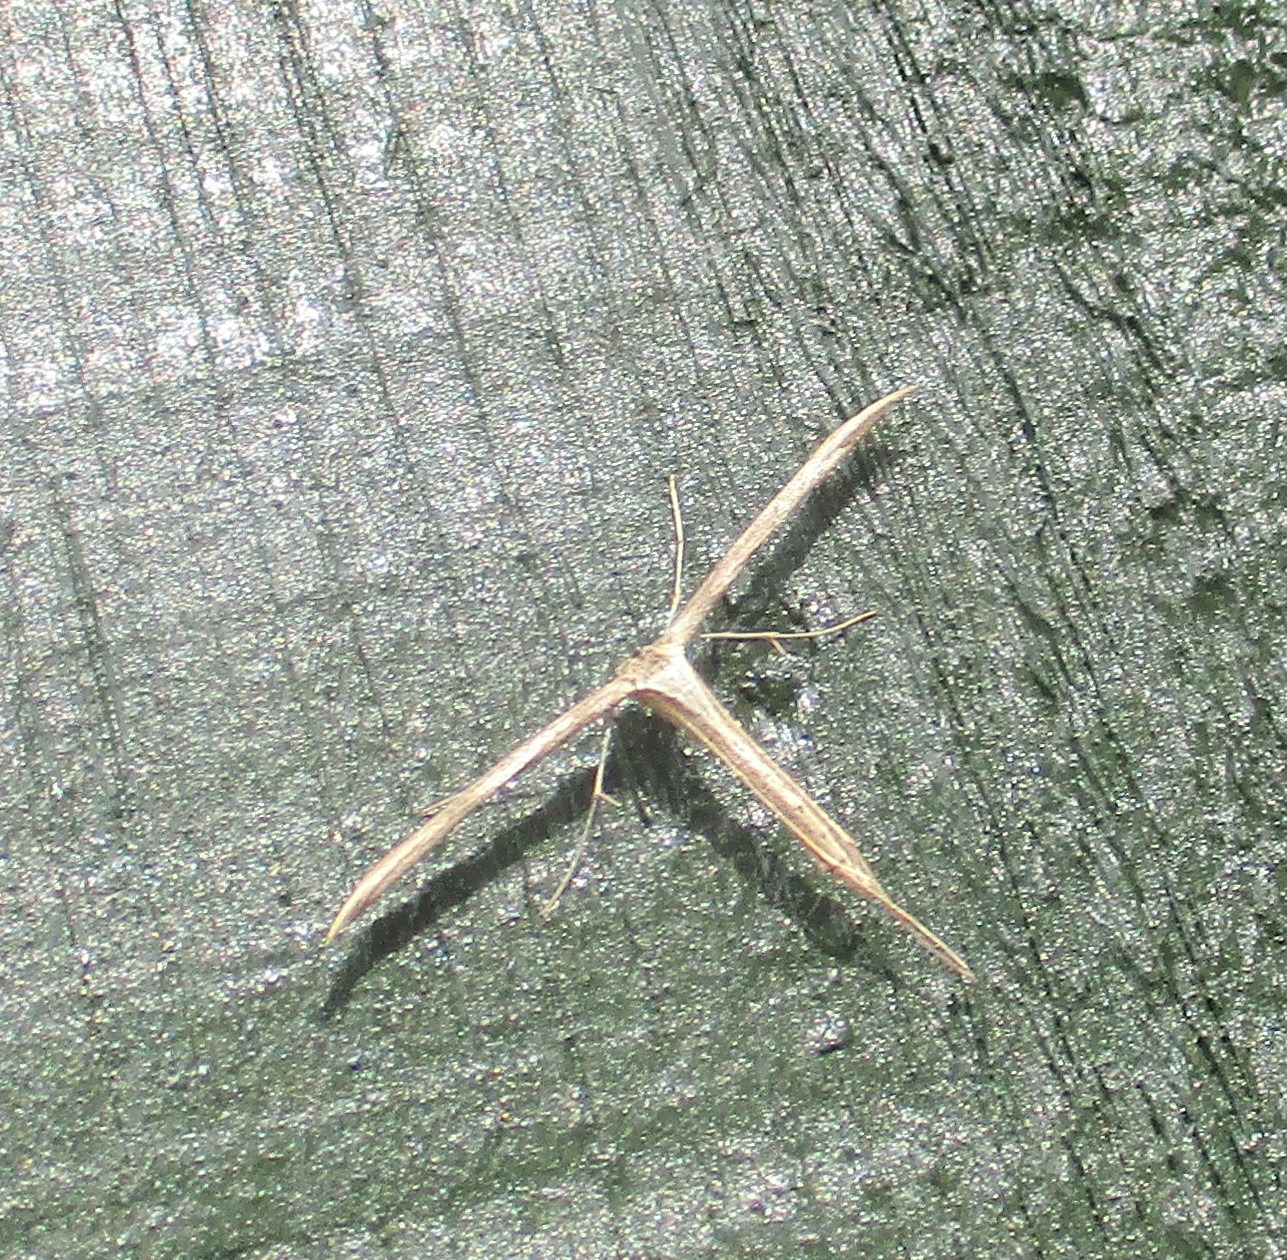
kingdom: Animalia
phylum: Arthropoda
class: Insecta
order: Lepidoptera
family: Pterophoridae
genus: Emmelina
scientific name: Emmelina monodactyla
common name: Snerlefjermøl
